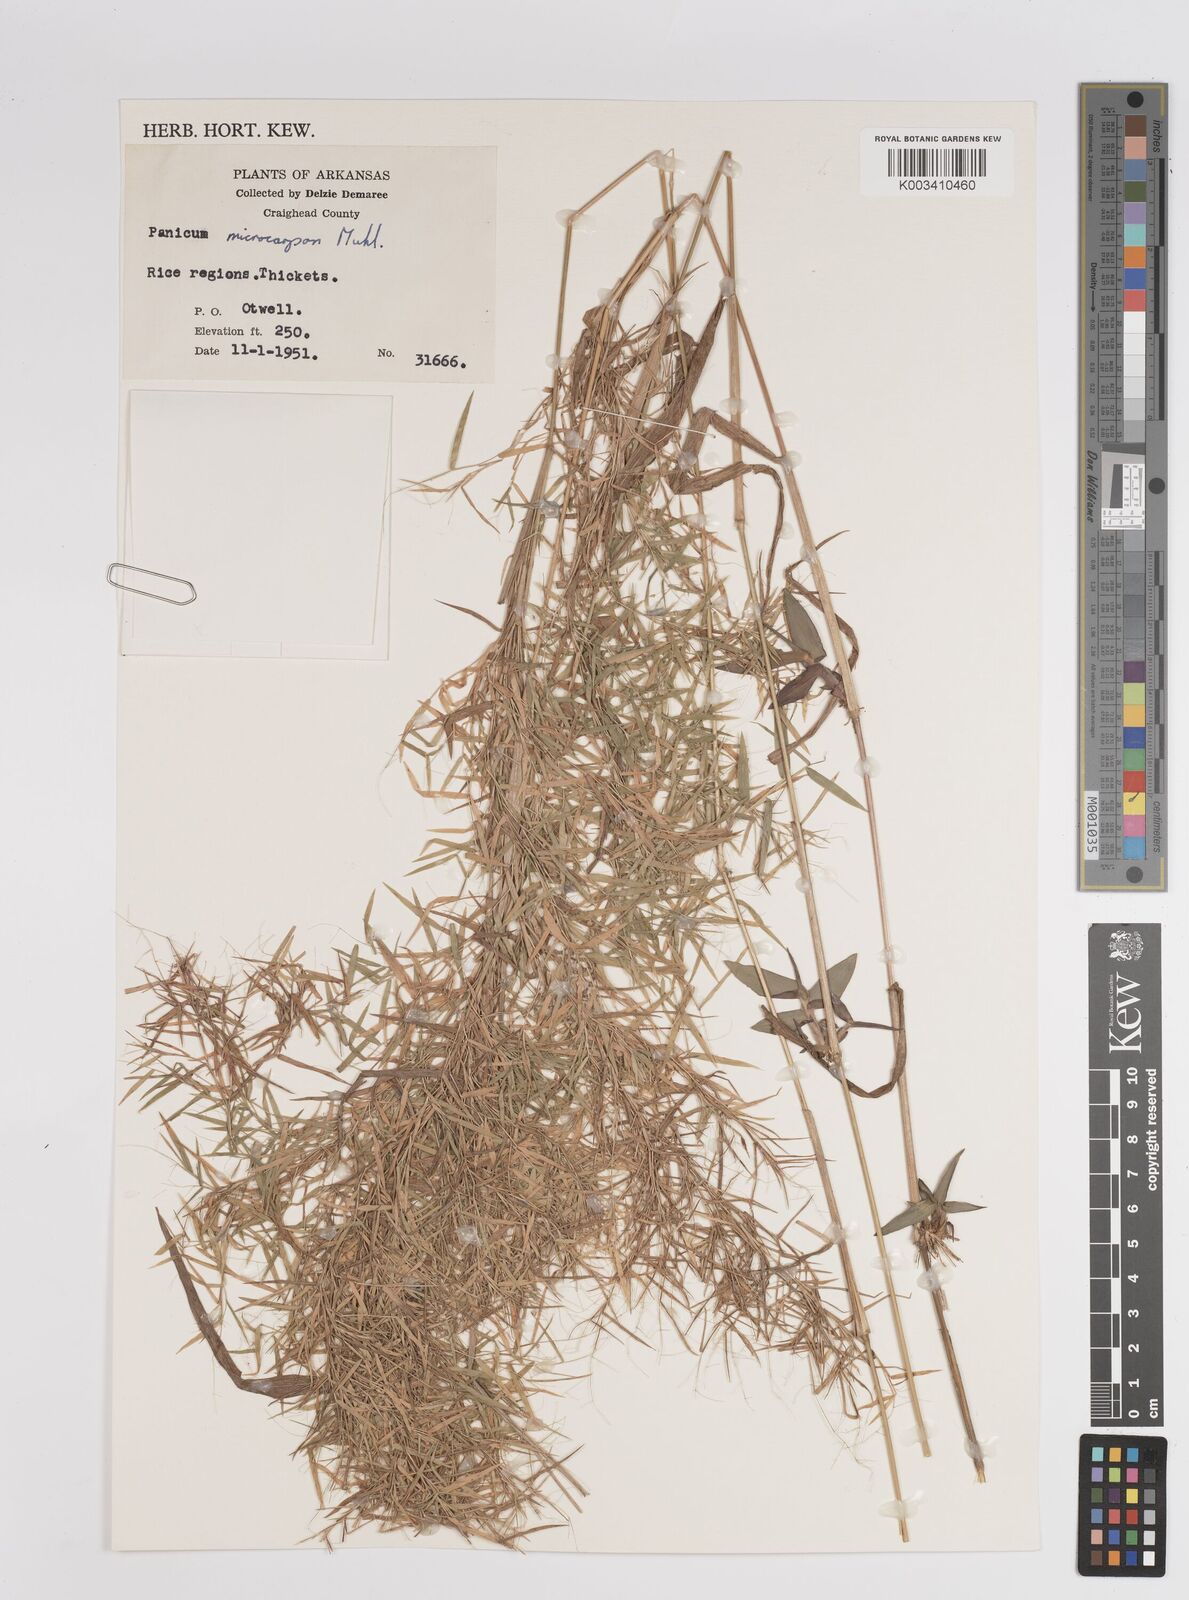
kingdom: Plantae
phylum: Tracheophyta
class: Liliopsida
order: Poales
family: Poaceae
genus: Dichanthelium
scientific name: Dichanthelium polyanthes
